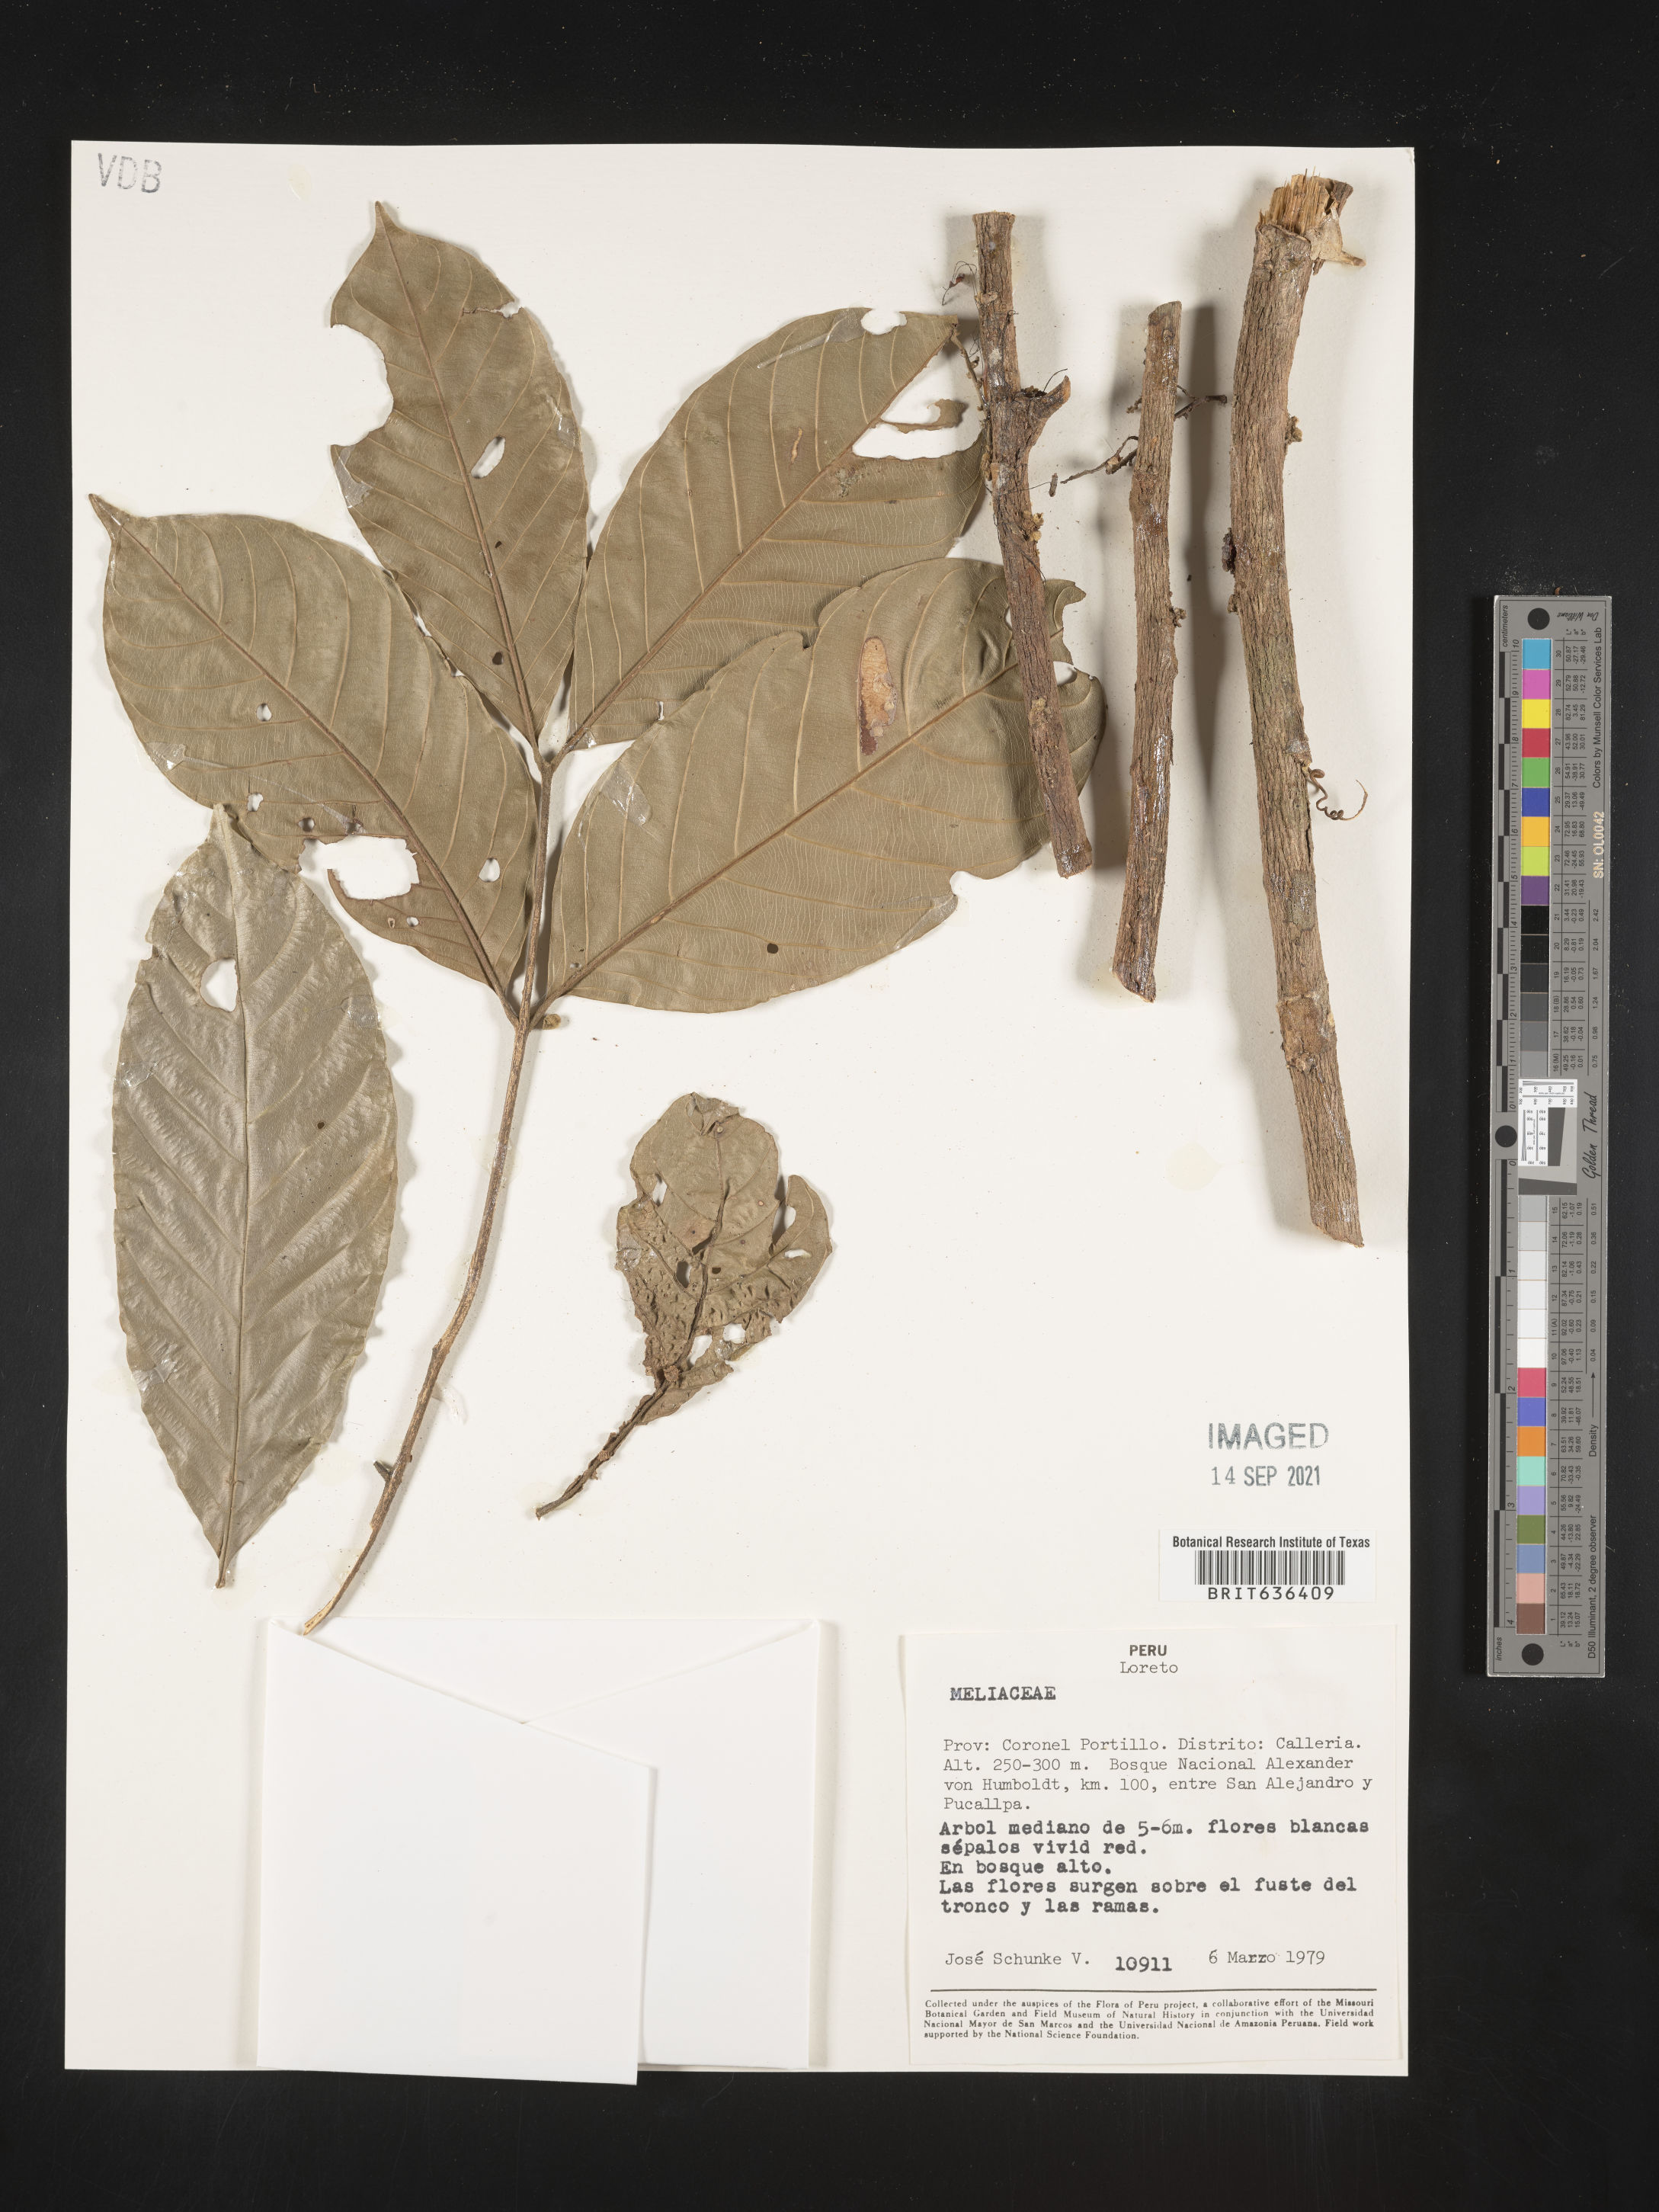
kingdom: Plantae
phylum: Tracheophyta
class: Magnoliopsida
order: Sapindales
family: Meliaceae
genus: Aglaia
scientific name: Aglaia
